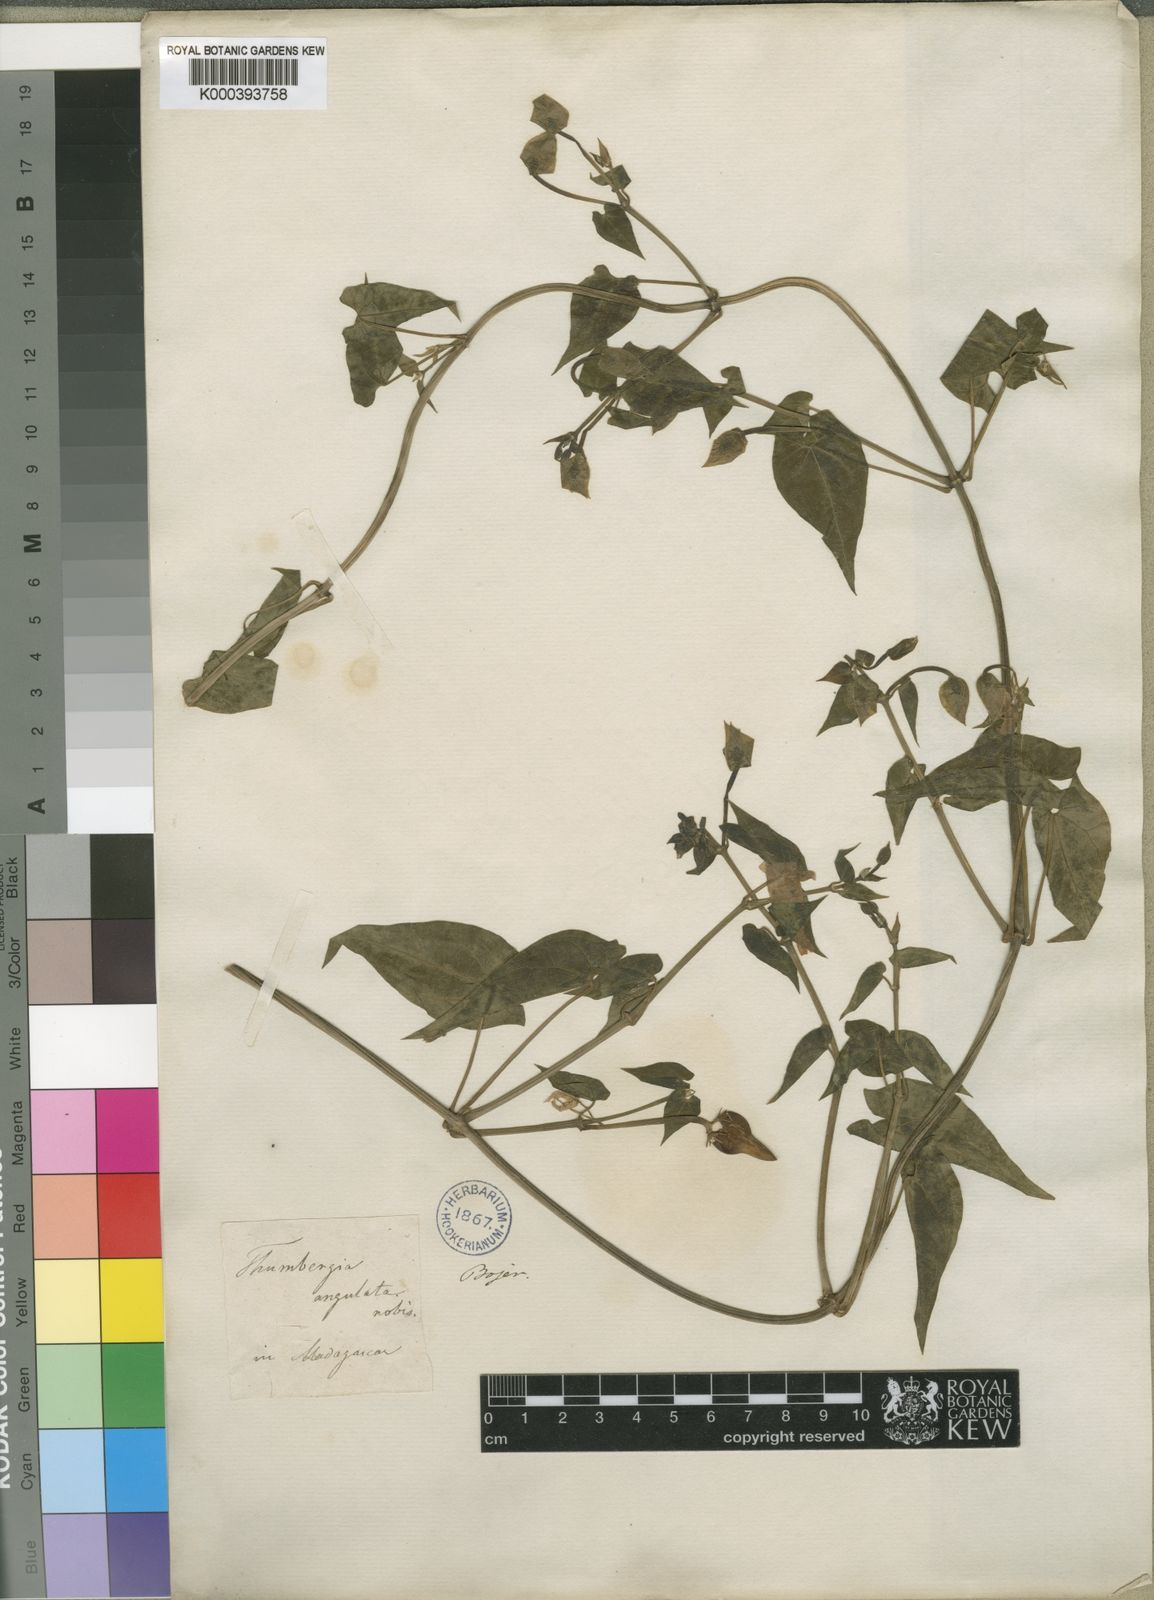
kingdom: Plantae
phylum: Tracheophyta
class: Magnoliopsida
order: Lamiales
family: Acanthaceae
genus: Thunbergia
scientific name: Thunbergia reticulata
